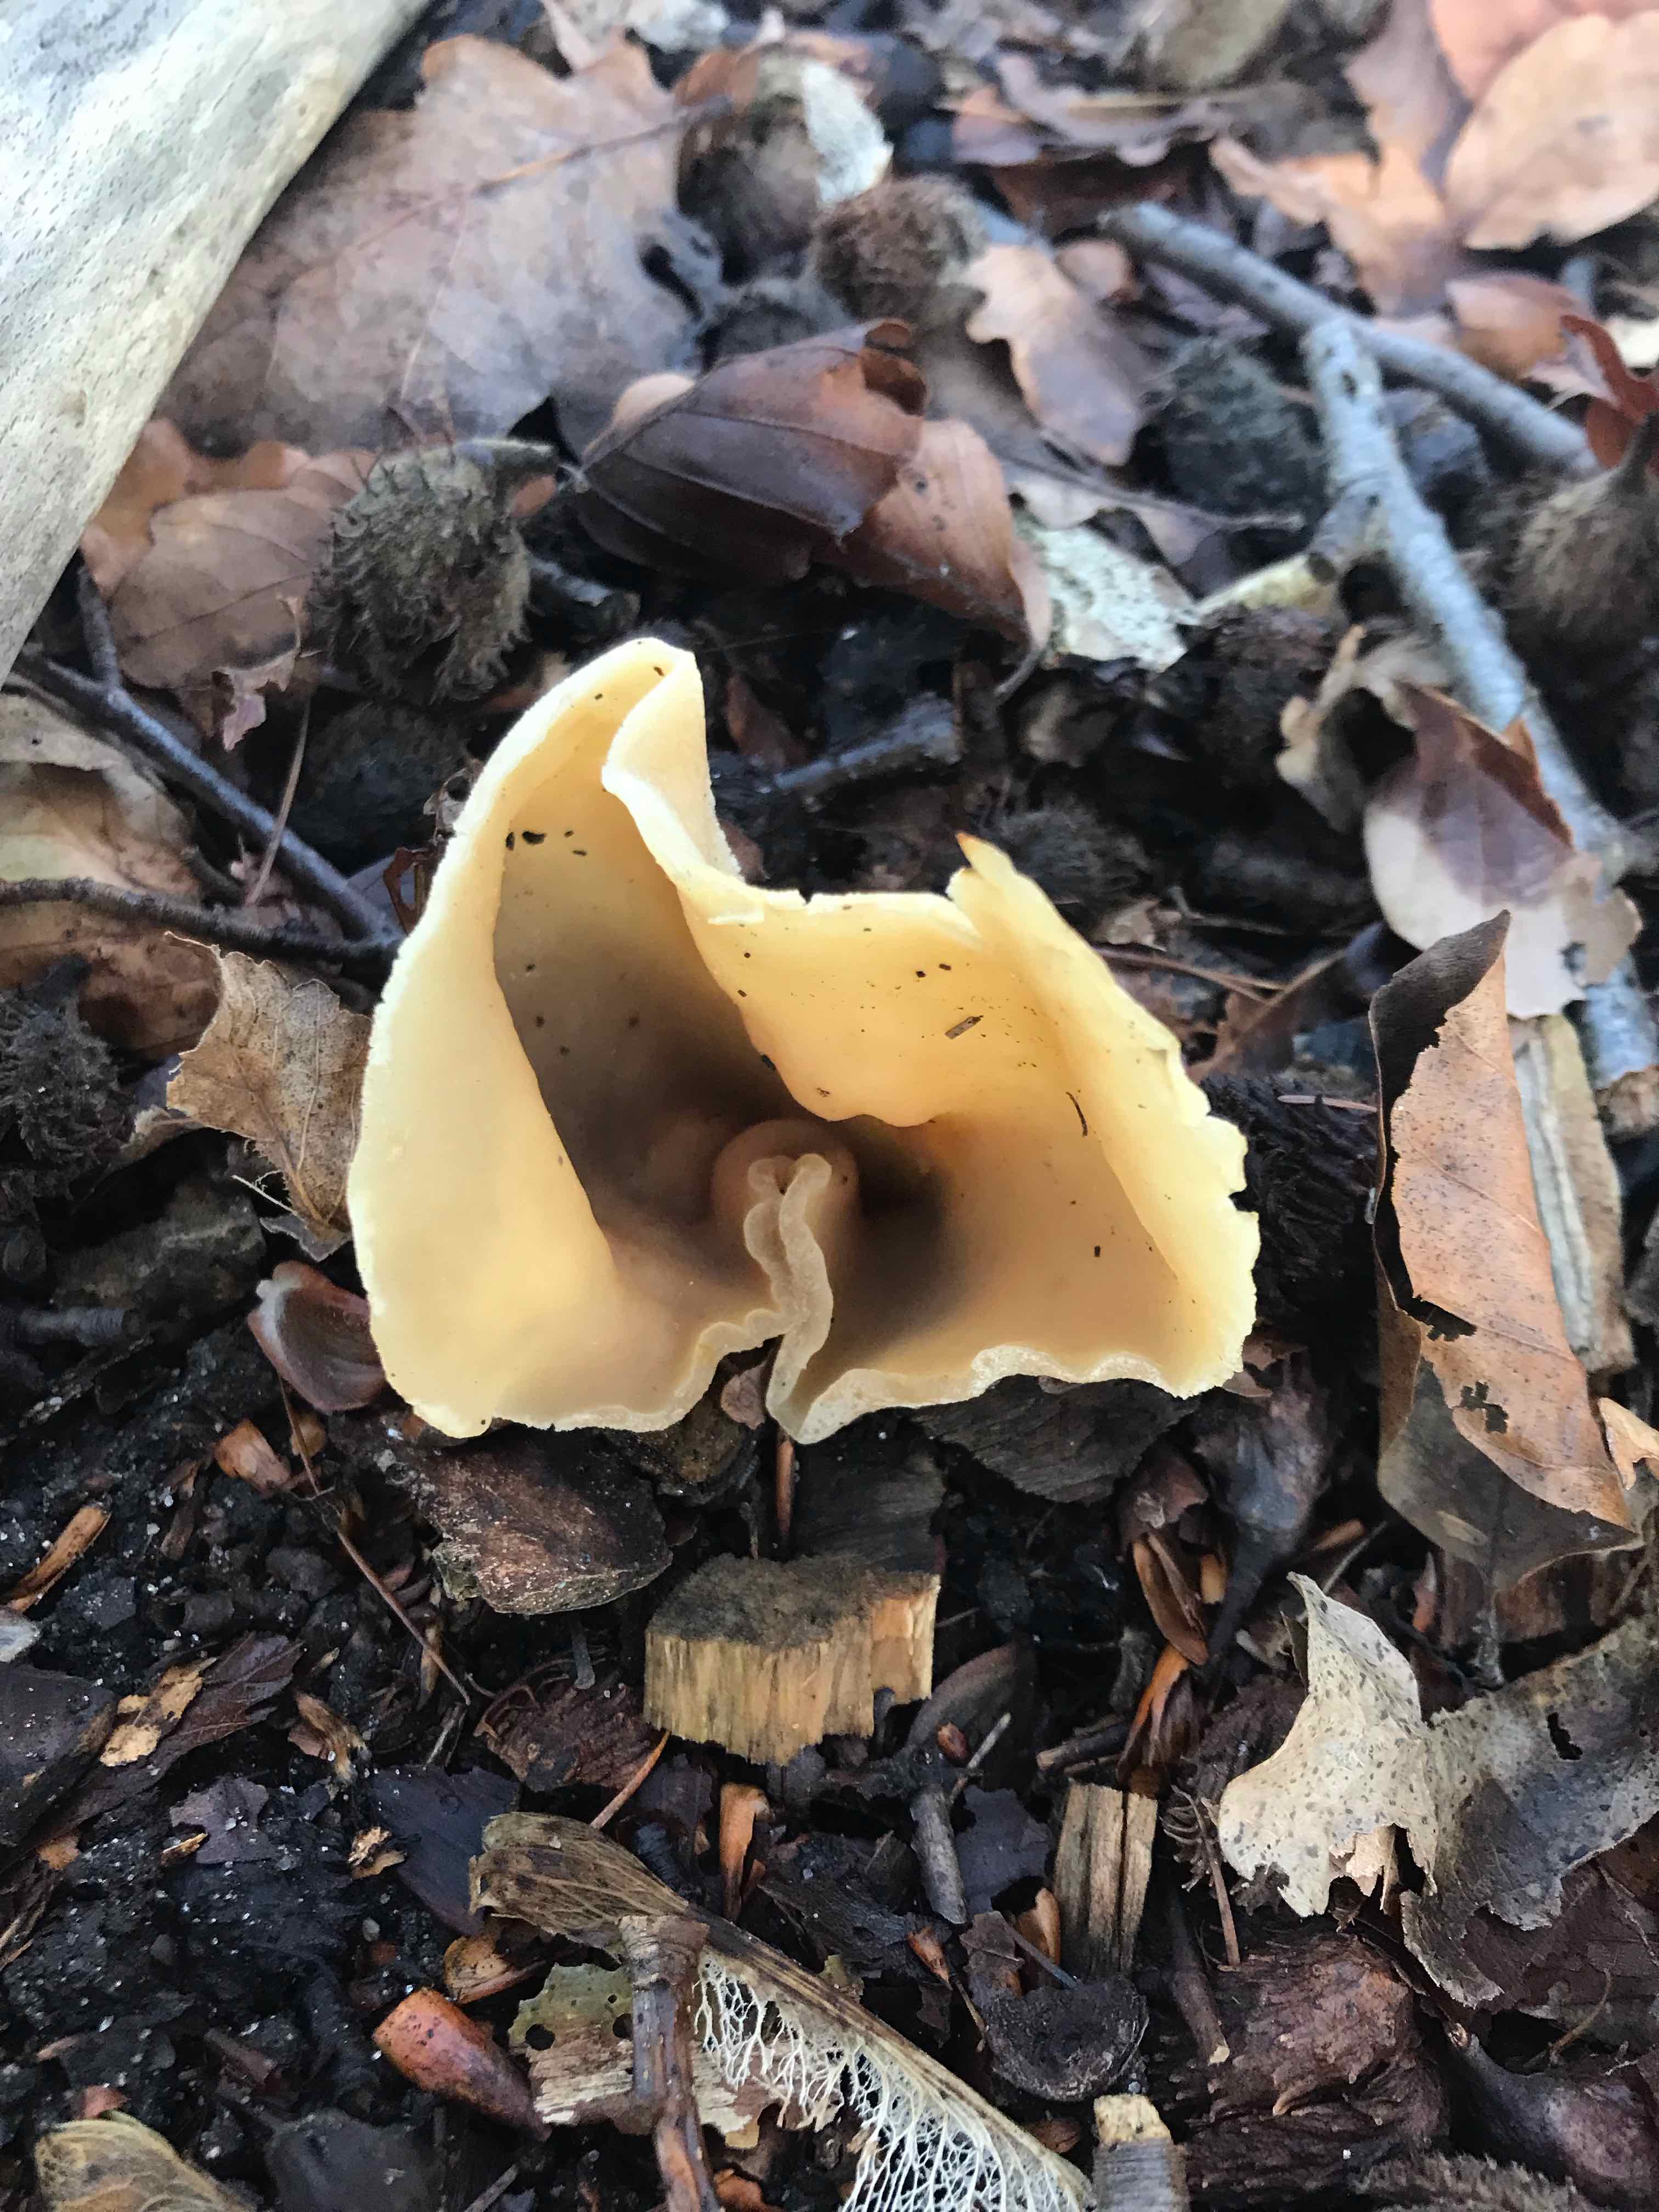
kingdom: Fungi
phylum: Ascomycota
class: Pezizomycetes
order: Pezizales
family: Pezizaceae
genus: Peziza
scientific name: Peziza
